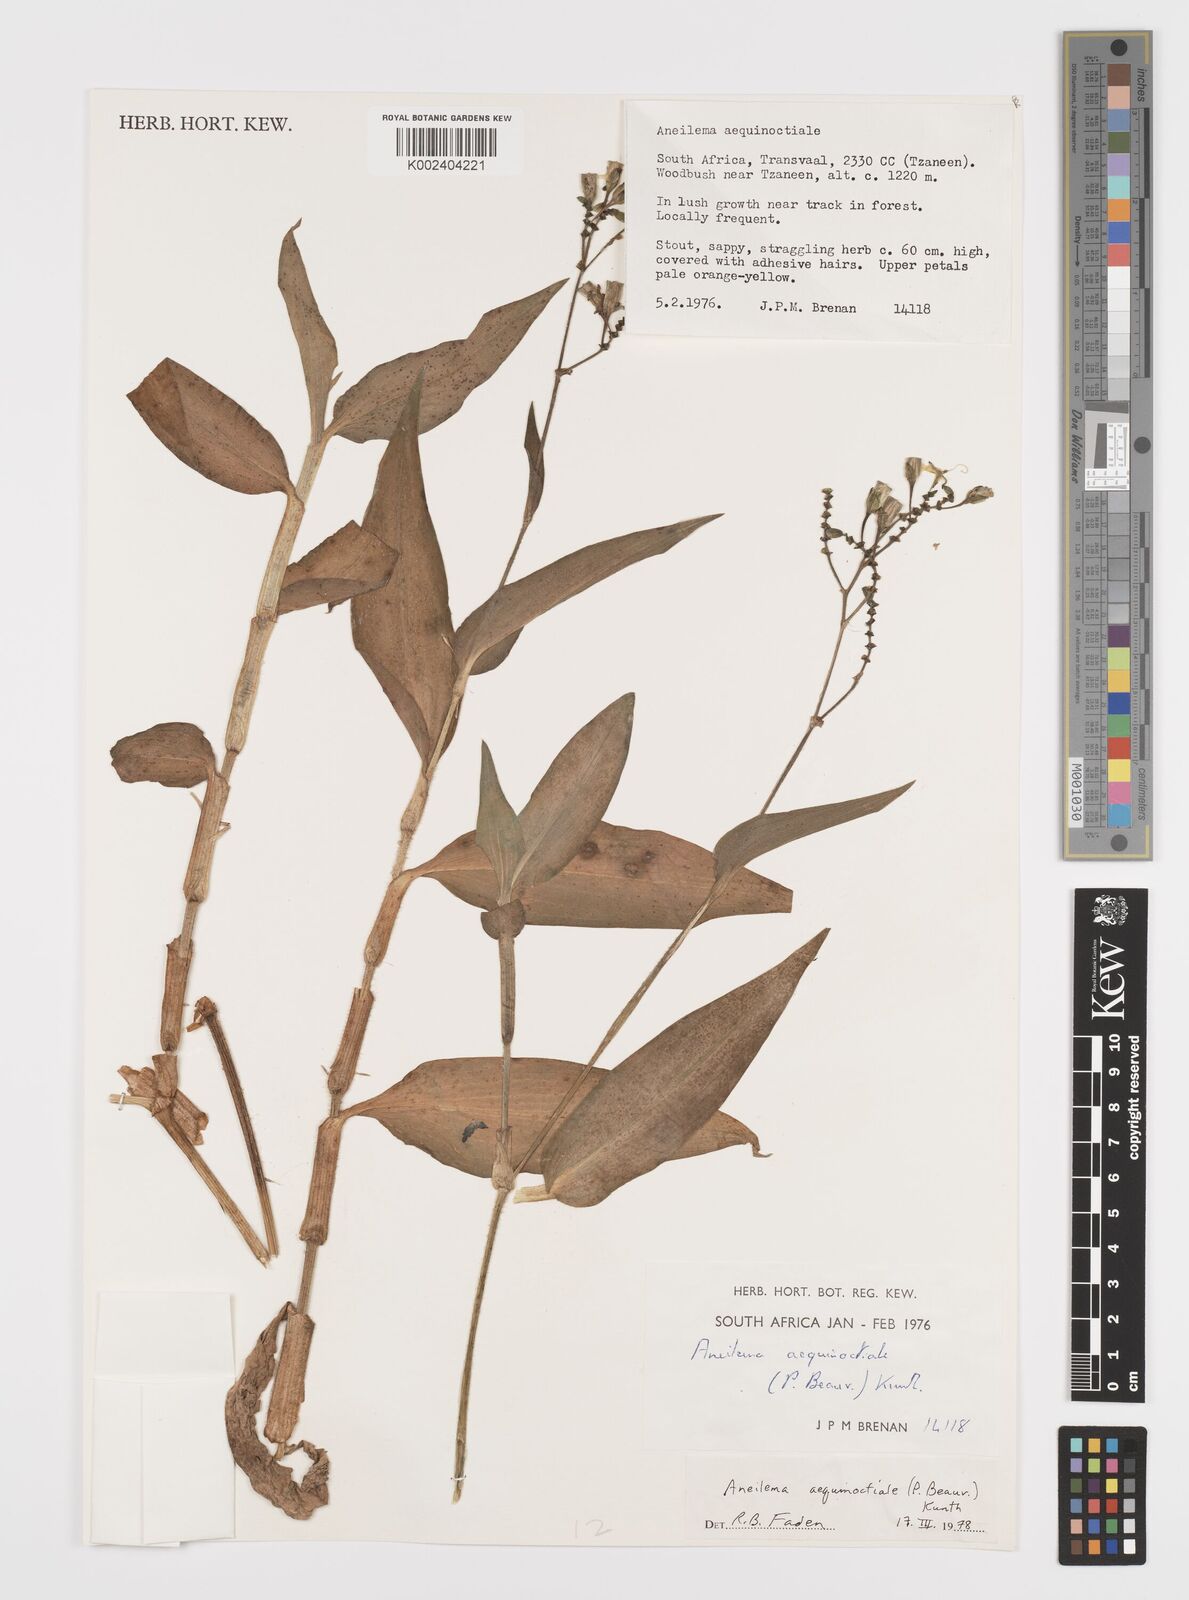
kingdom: Plantae
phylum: Tracheophyta
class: Liliopsida
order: Commelinales
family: Commelinaceae
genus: Aneilema
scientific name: Aneilema aequinoctiale
